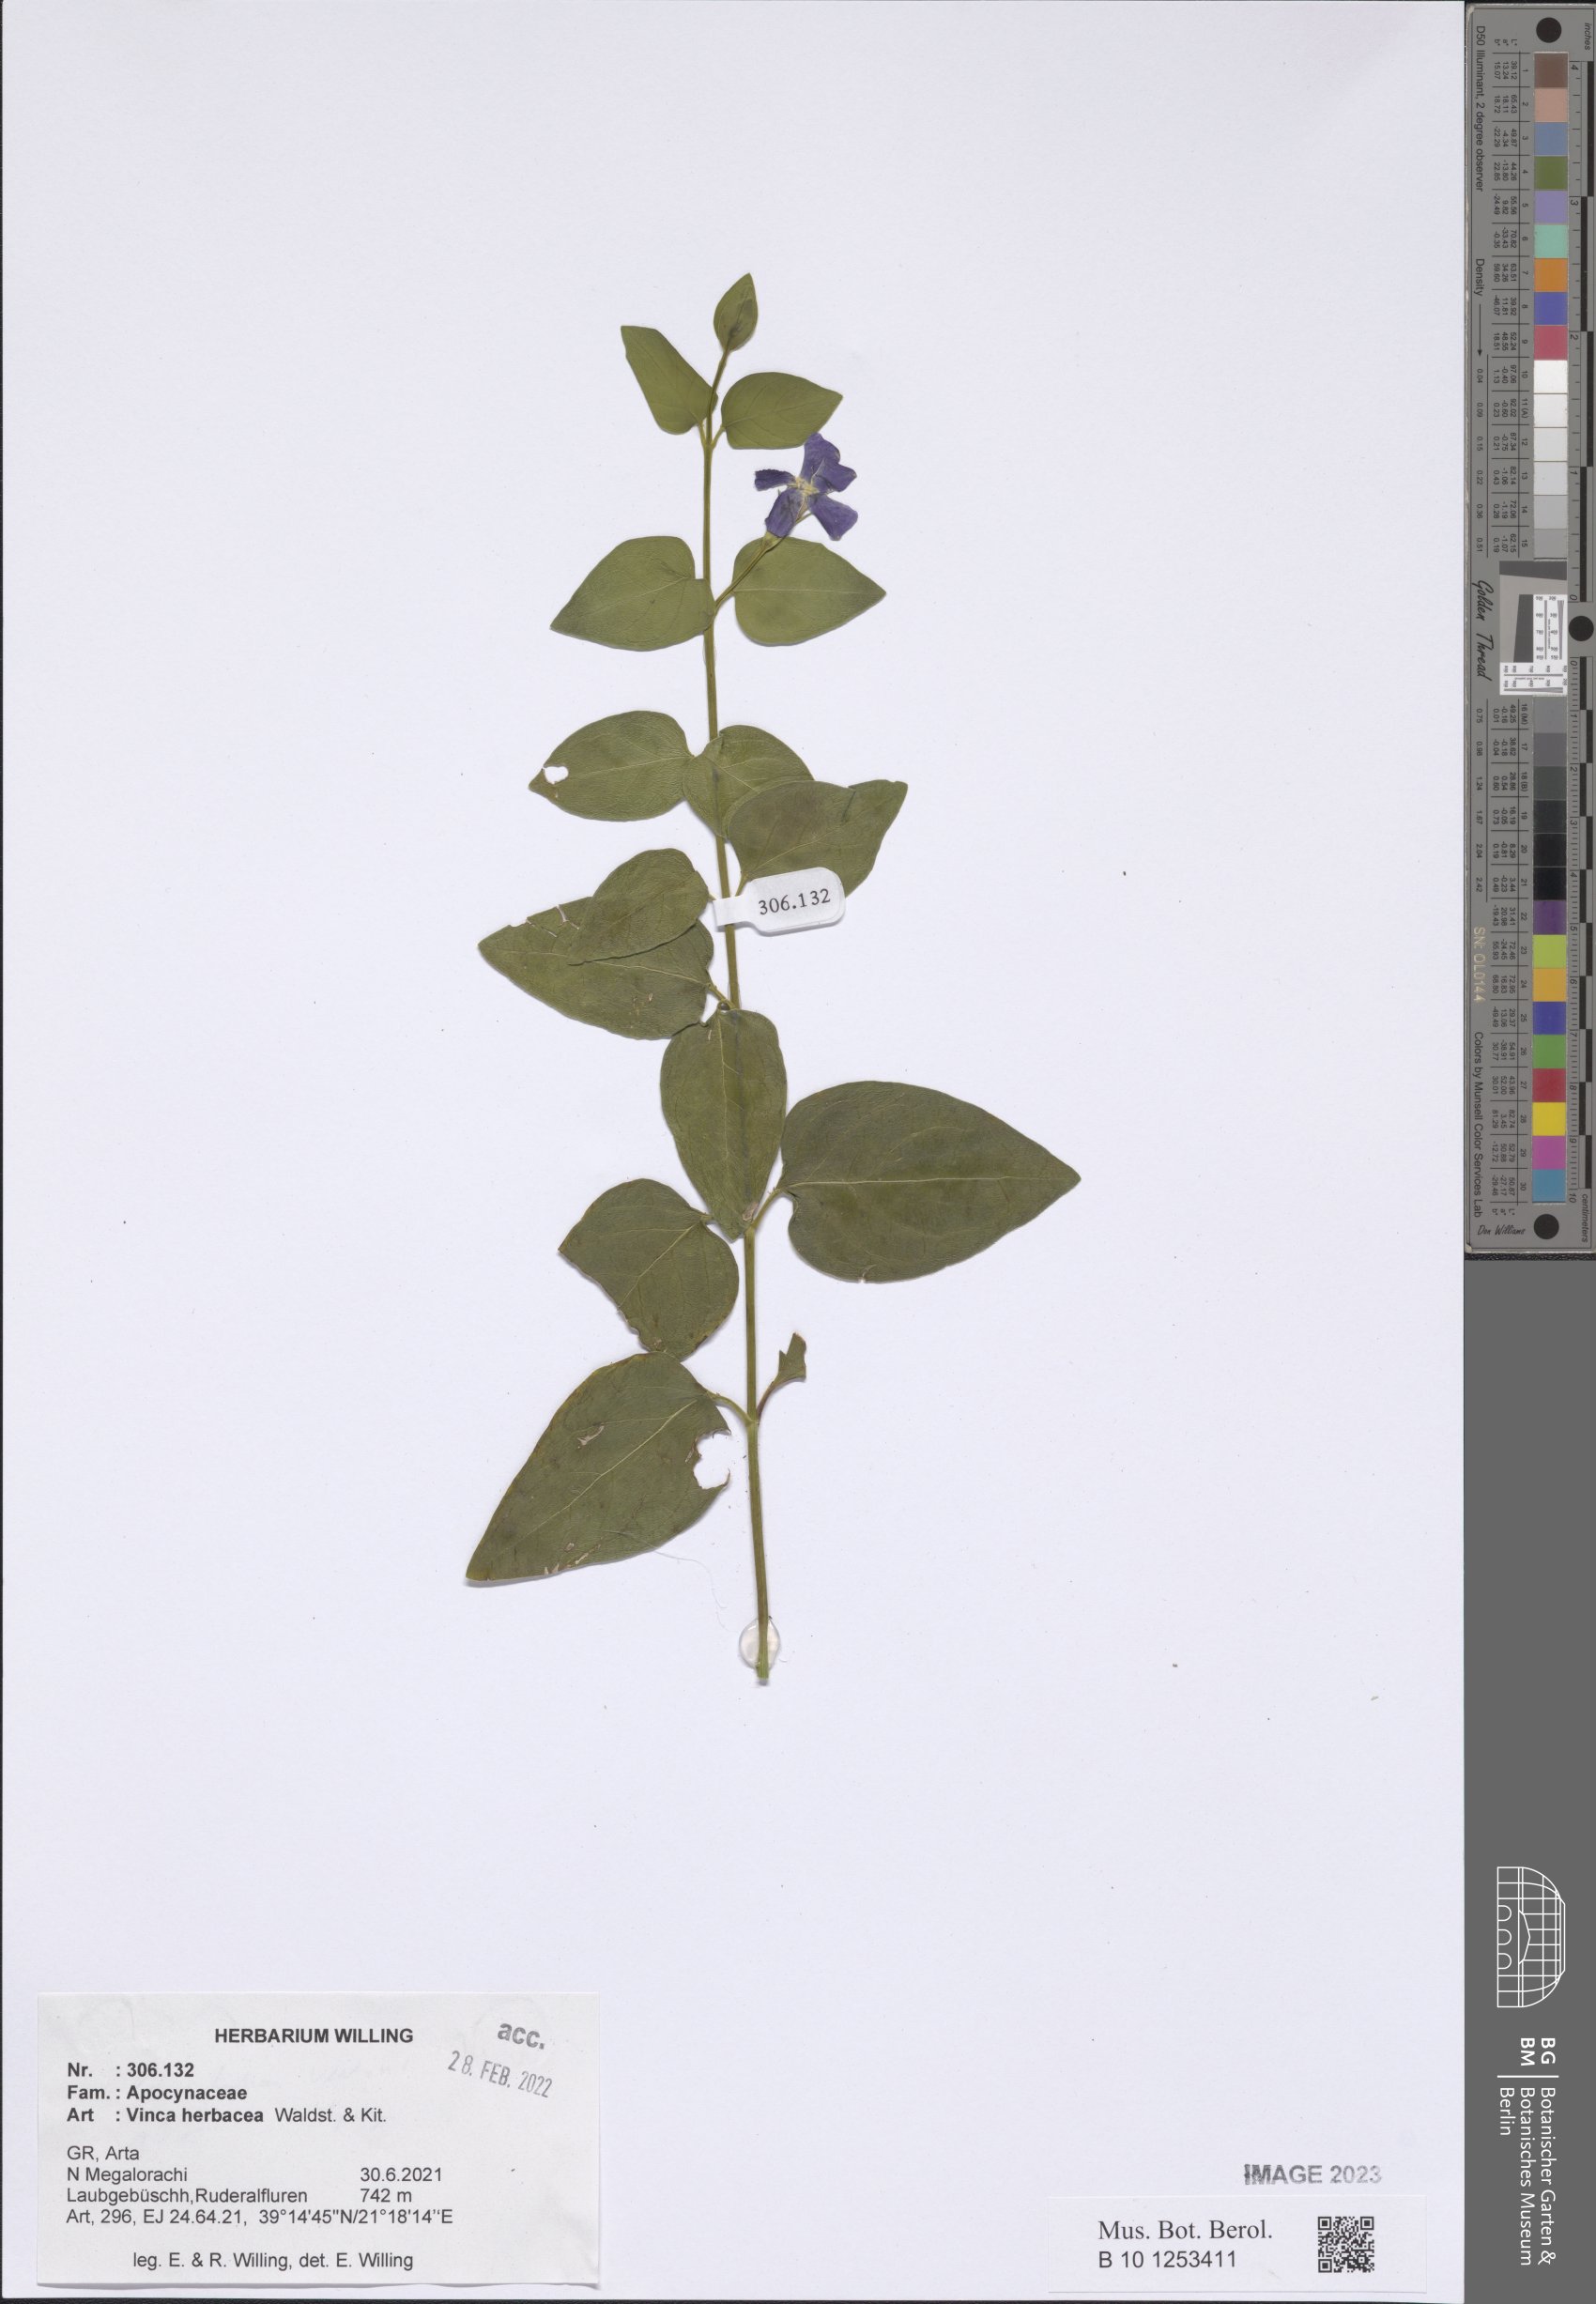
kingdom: Plantae
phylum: Tracheophyta
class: Magnoliopsida
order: Gentianales
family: Apocynaceae
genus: Vinca
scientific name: Vinca herbacea
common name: Herbaceous periwinkle
